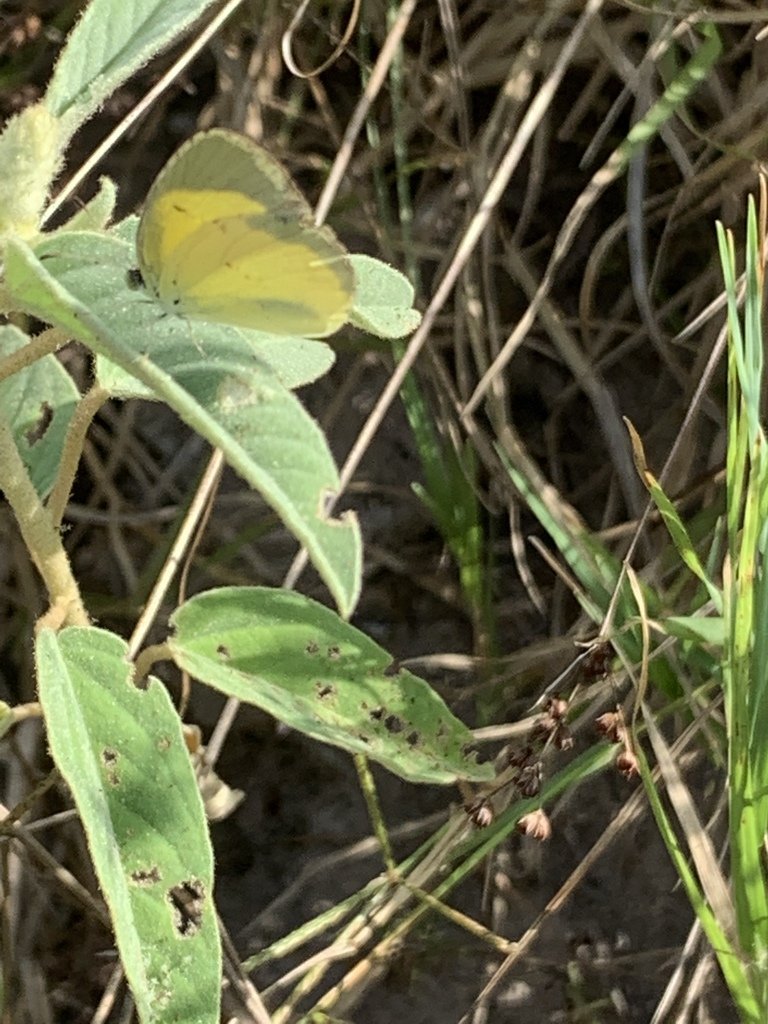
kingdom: Animalia
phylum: Arthropoda
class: Insecta
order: Lepidoptera
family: Pieridae
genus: Pyrisitia
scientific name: Pyrisitia lisa
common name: Little Yellow
